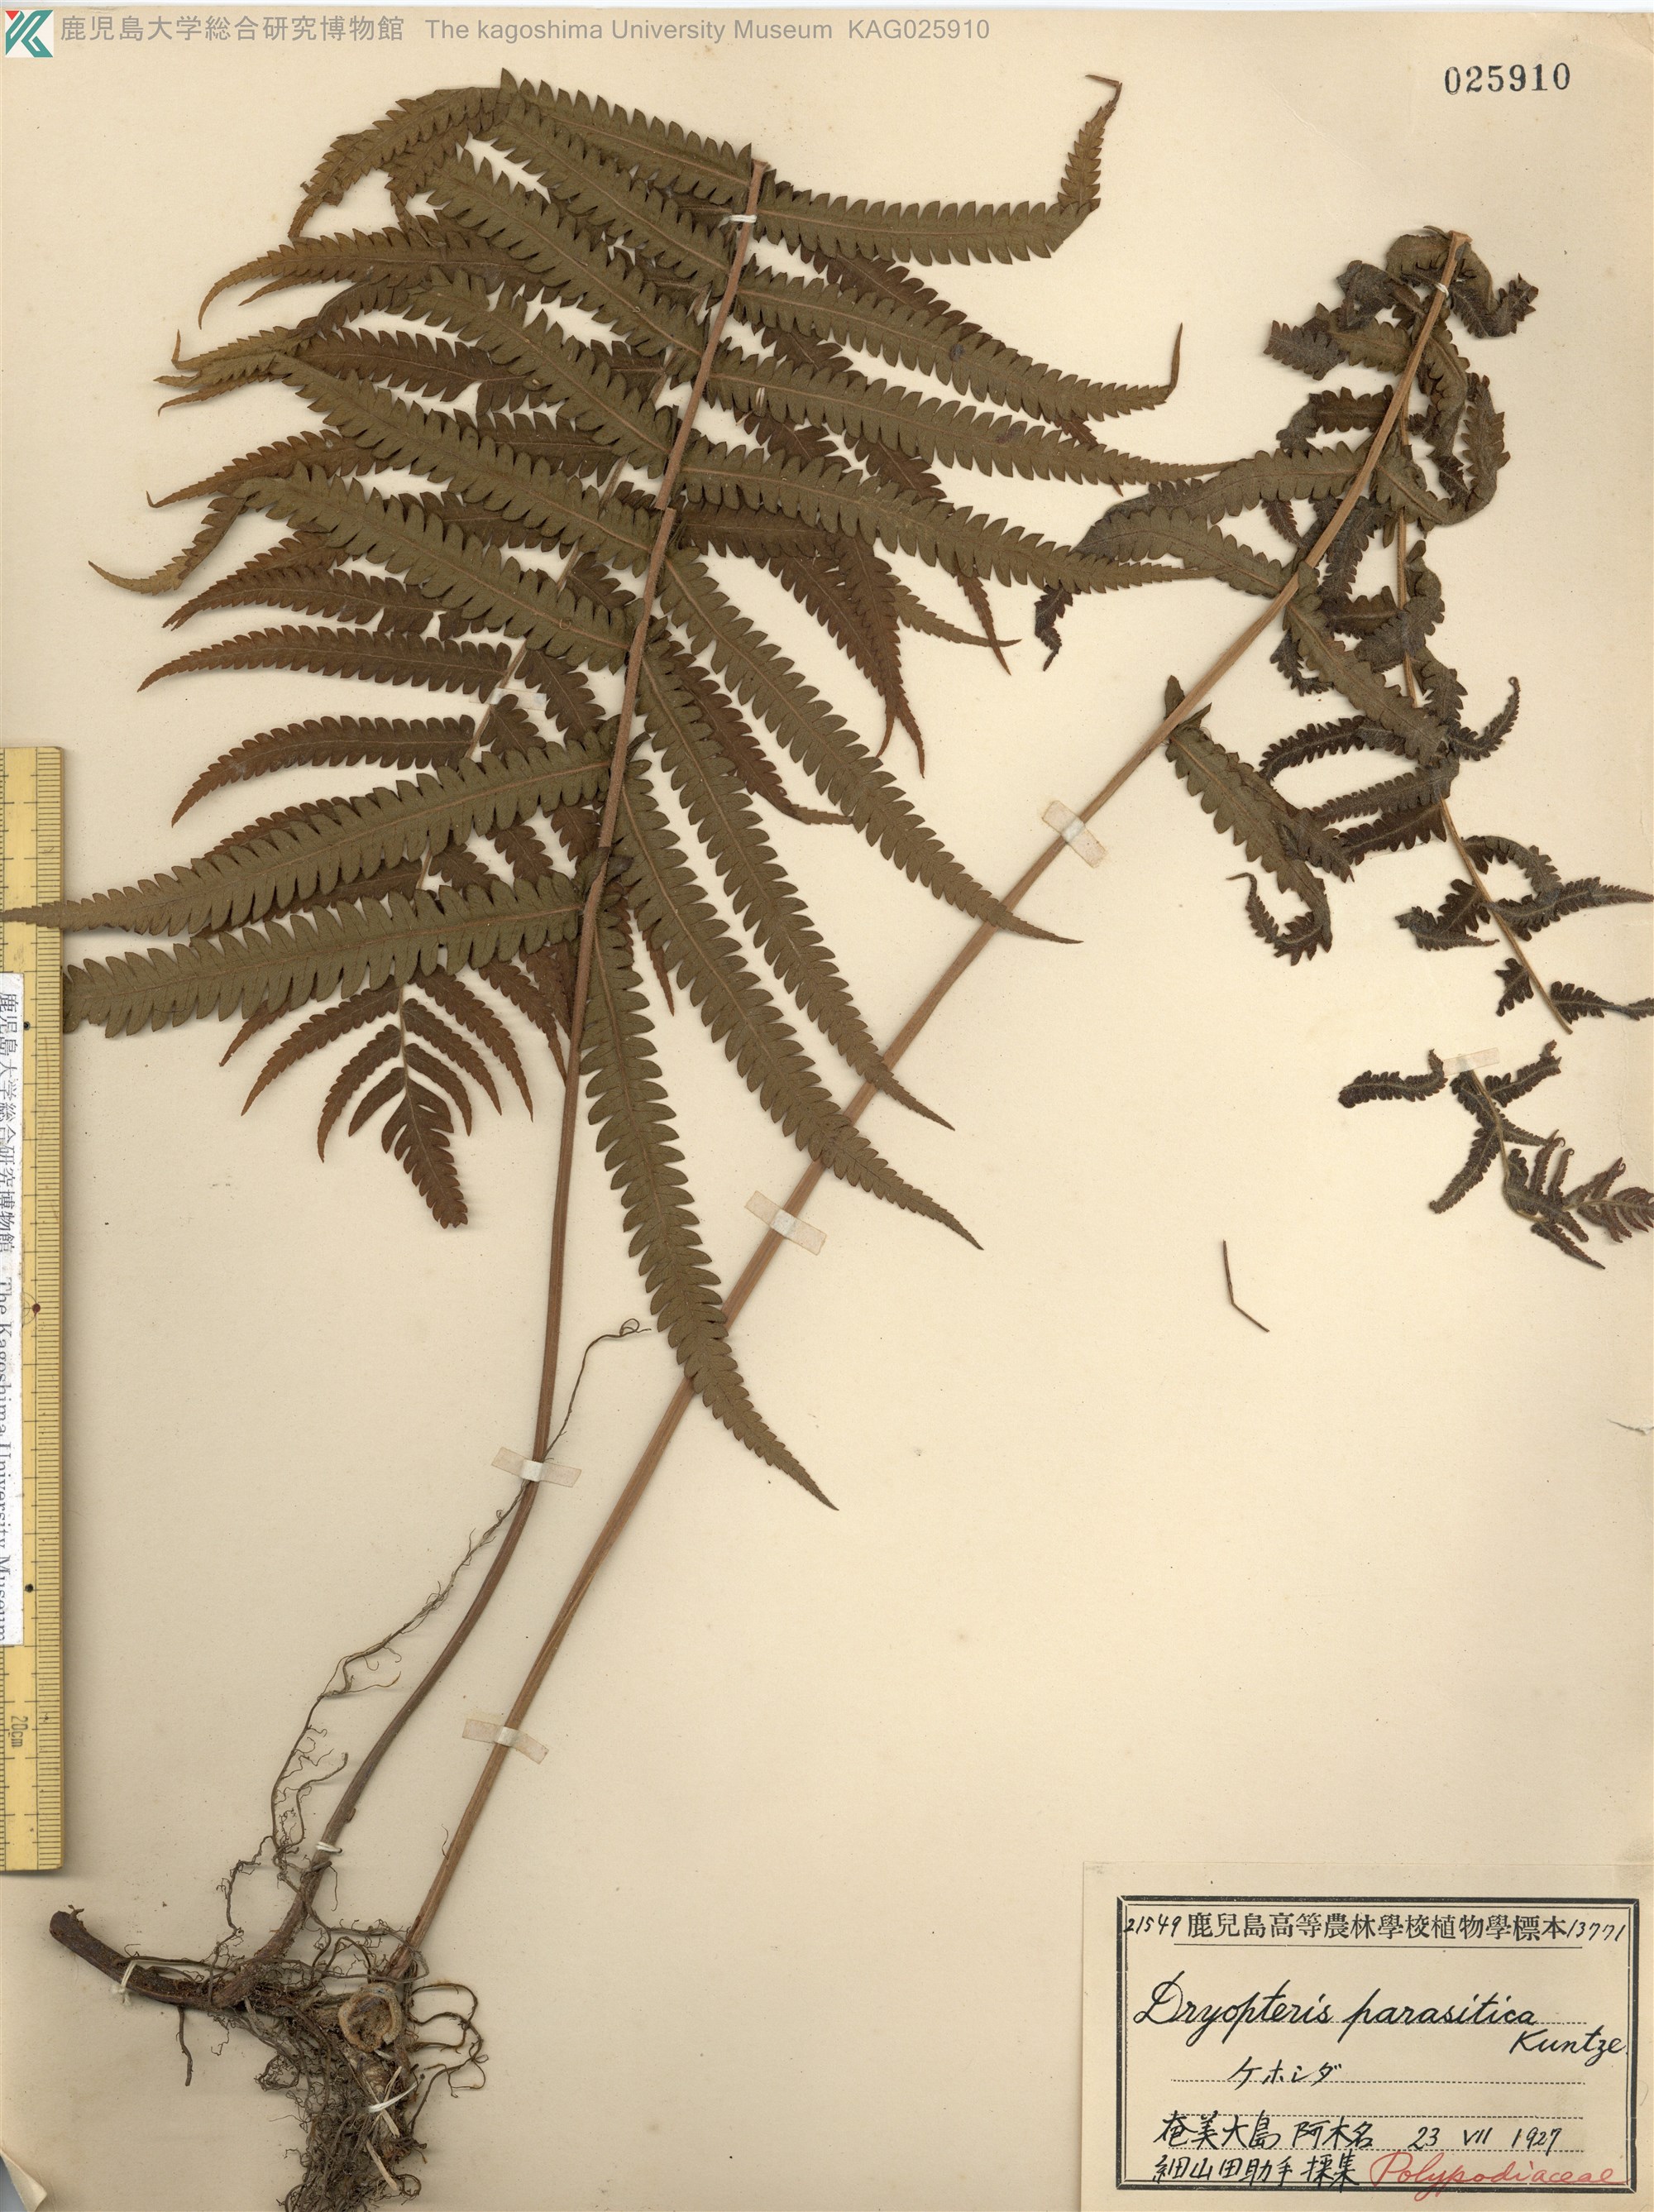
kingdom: Plantae
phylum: Tracheophyta
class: Polypodiopsida
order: Polypodiales
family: Thelypteridaceae
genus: Christella
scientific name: Christella parasitica
